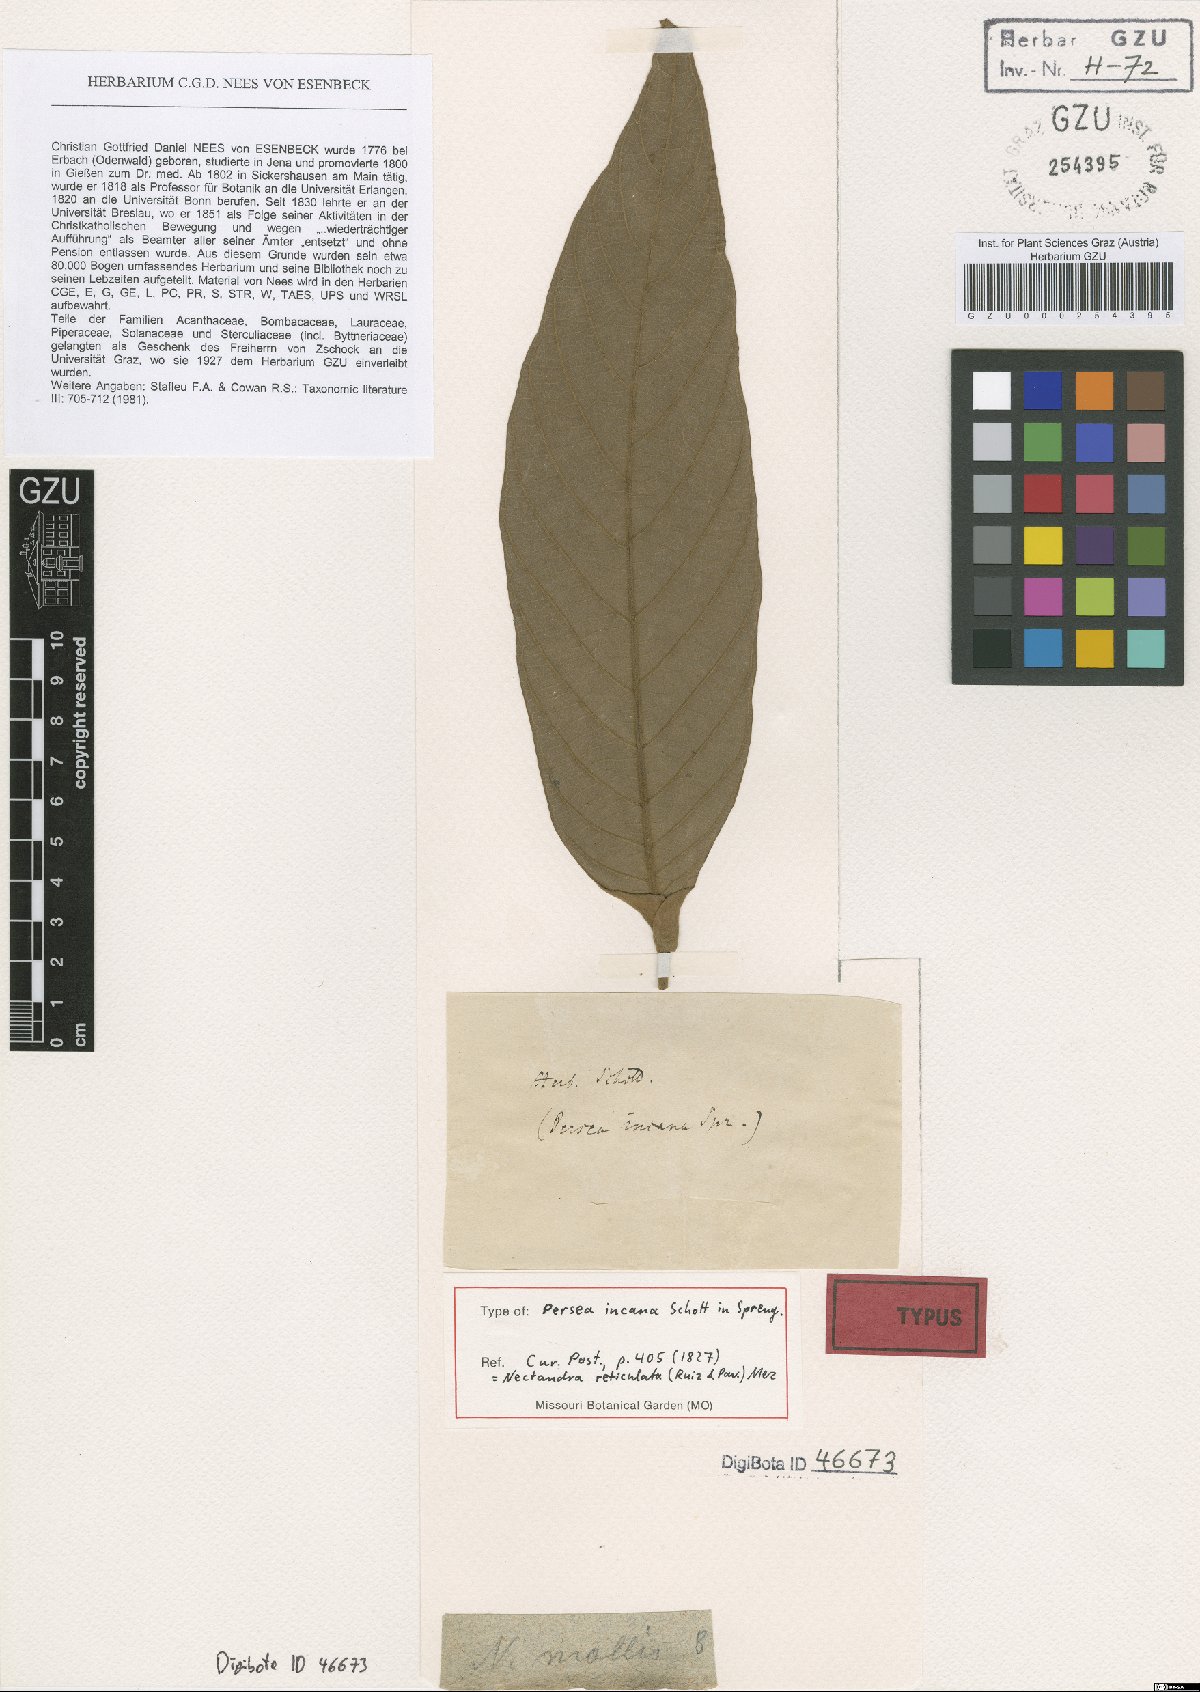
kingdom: Plantae
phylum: Tracheophyta
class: Magnoliopsida
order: Laurales
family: Lauraceae
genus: Nectandra
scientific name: Nectandra villosa
